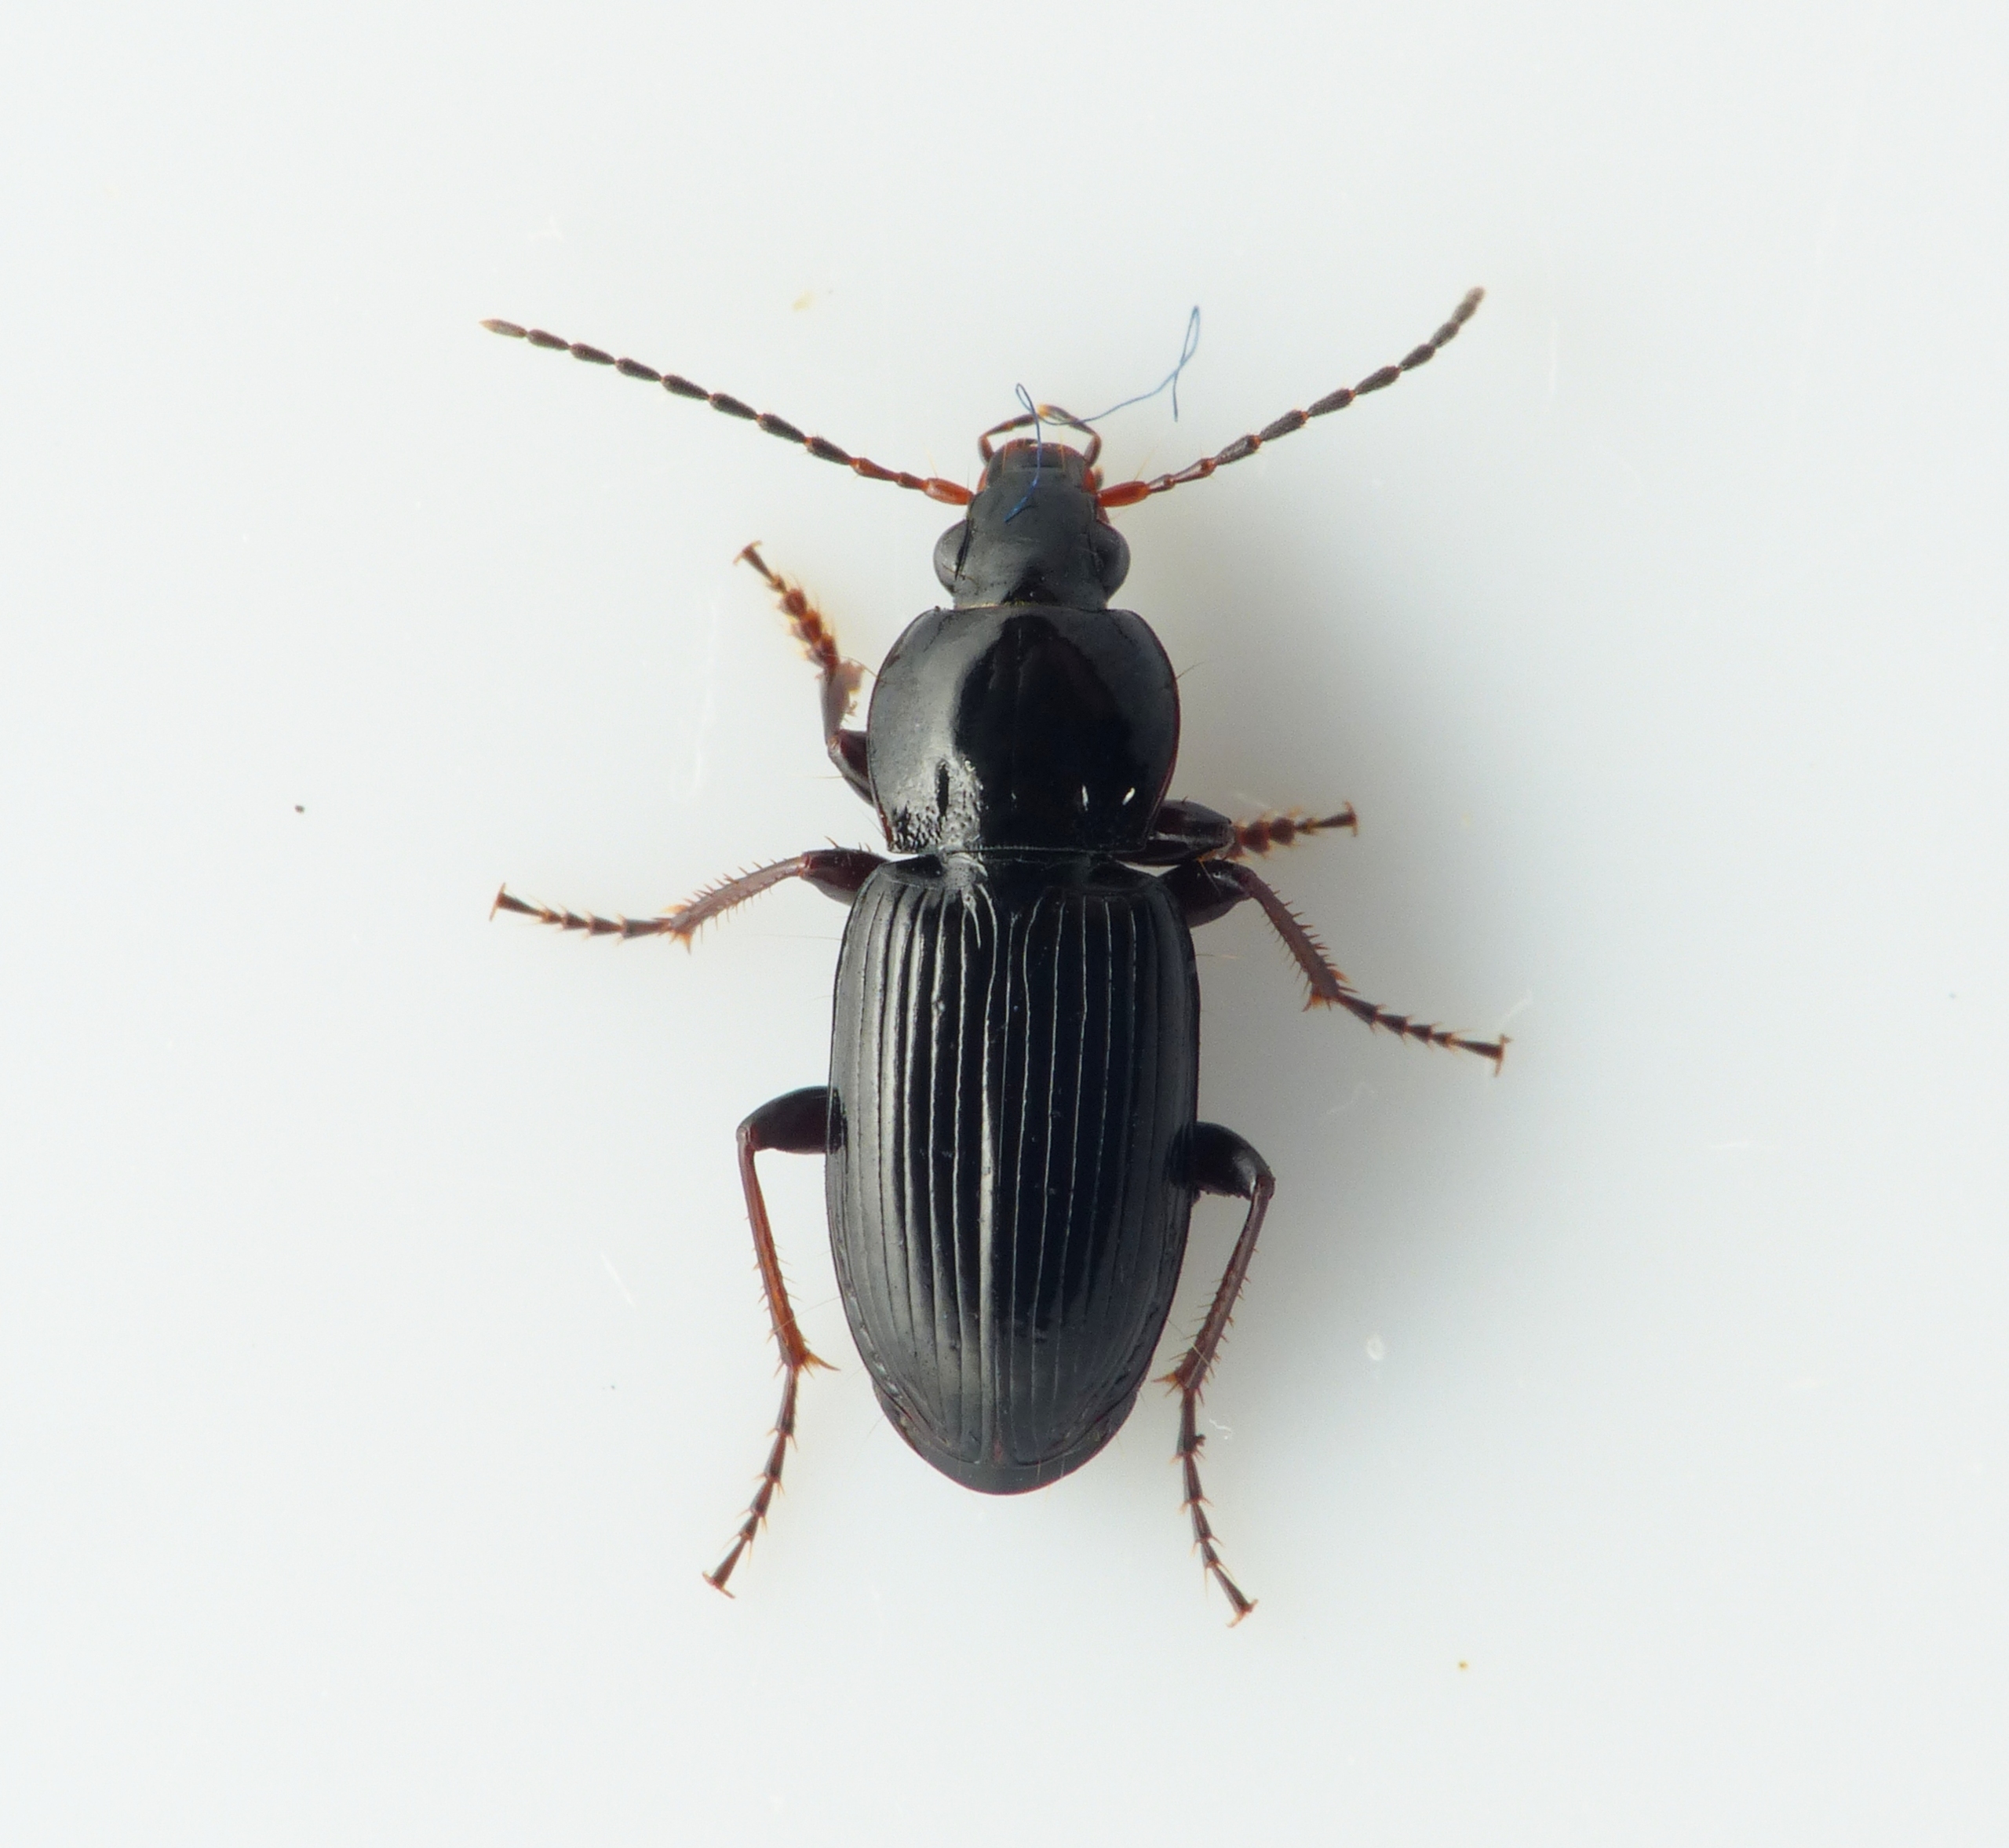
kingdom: Animalia
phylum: Arthropoda
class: Insecta
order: Coleoptera
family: Carabidae
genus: Pterostichus
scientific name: Pterostichus vernalis
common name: Uanselig jordløber
